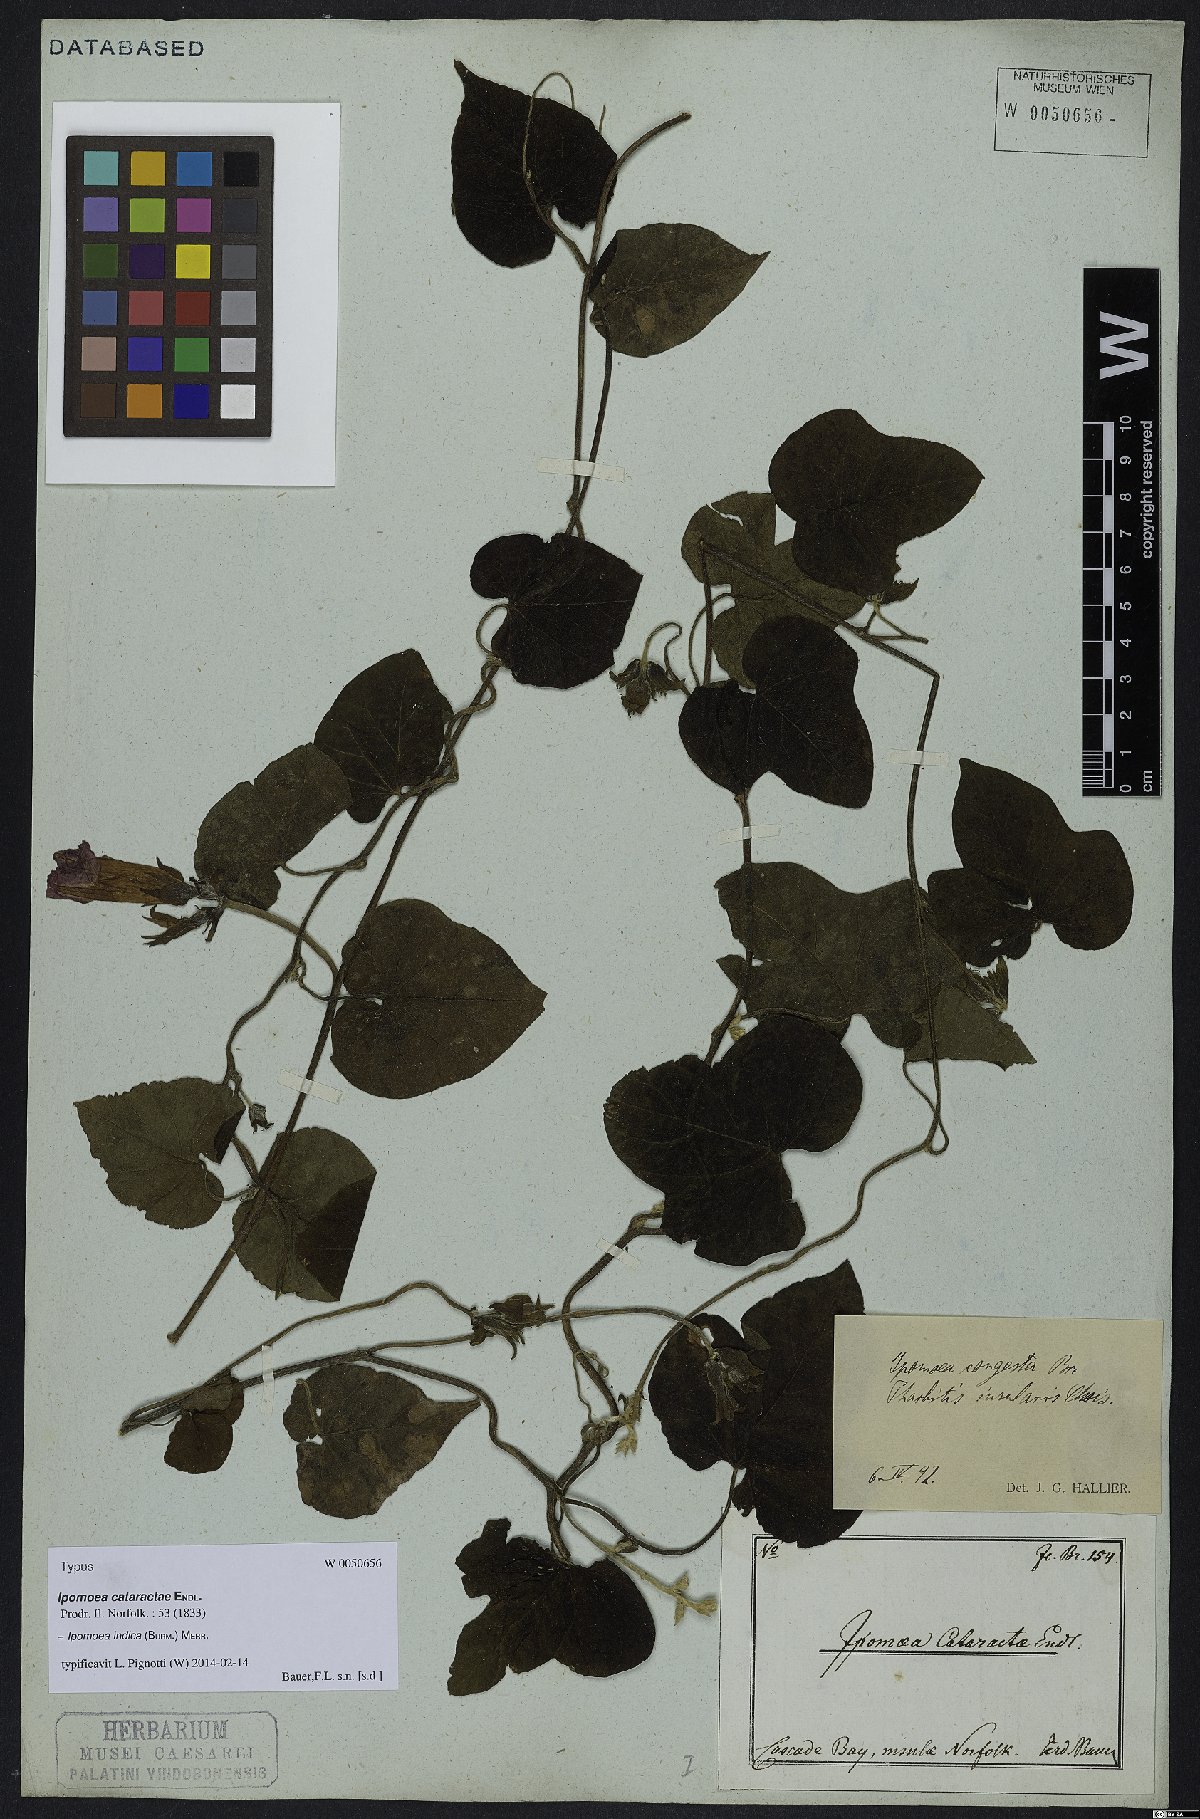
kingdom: Plantae
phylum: Tracheophyta
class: Magnoliopsida
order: Solanales
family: Convolvulaceae
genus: Ipomoea
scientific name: Ipomoea indica
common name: Blue dawnflower
